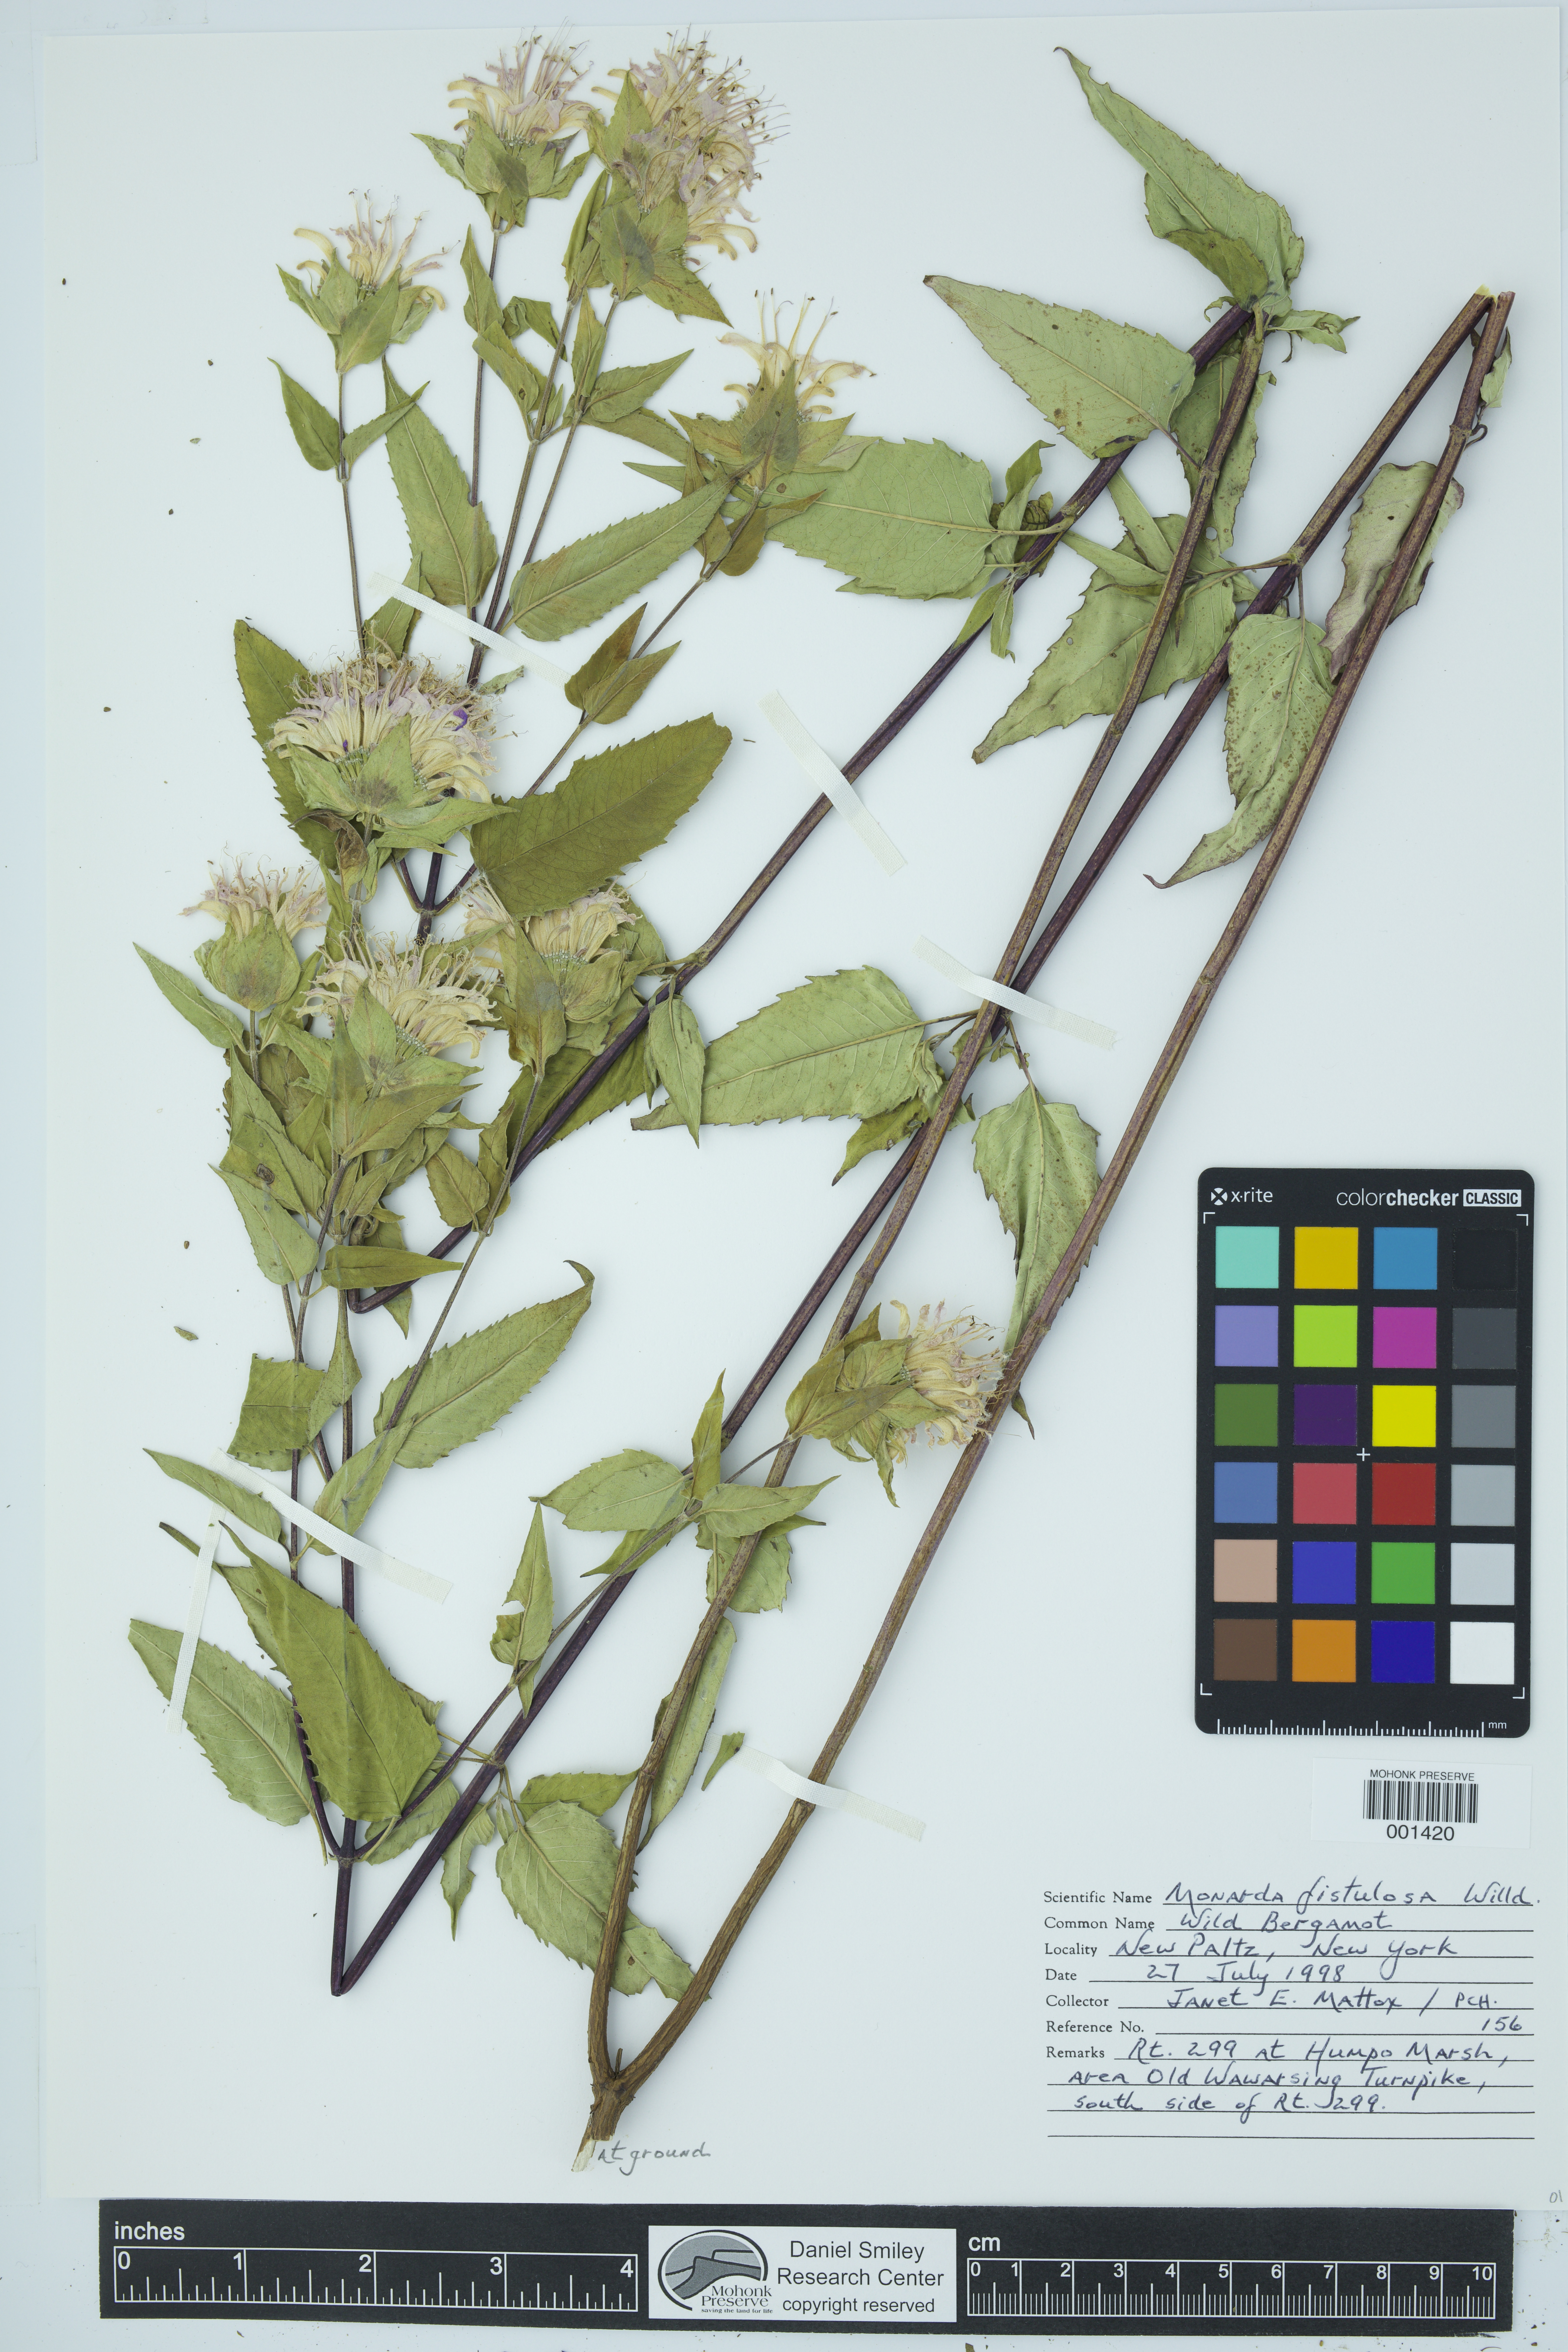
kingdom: Plantae
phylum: Tracheophyta
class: Magnoliopsida
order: Lamiales
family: Lamiaceae
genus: Monarda
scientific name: Monarda fistulosa
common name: Purple beebalm
